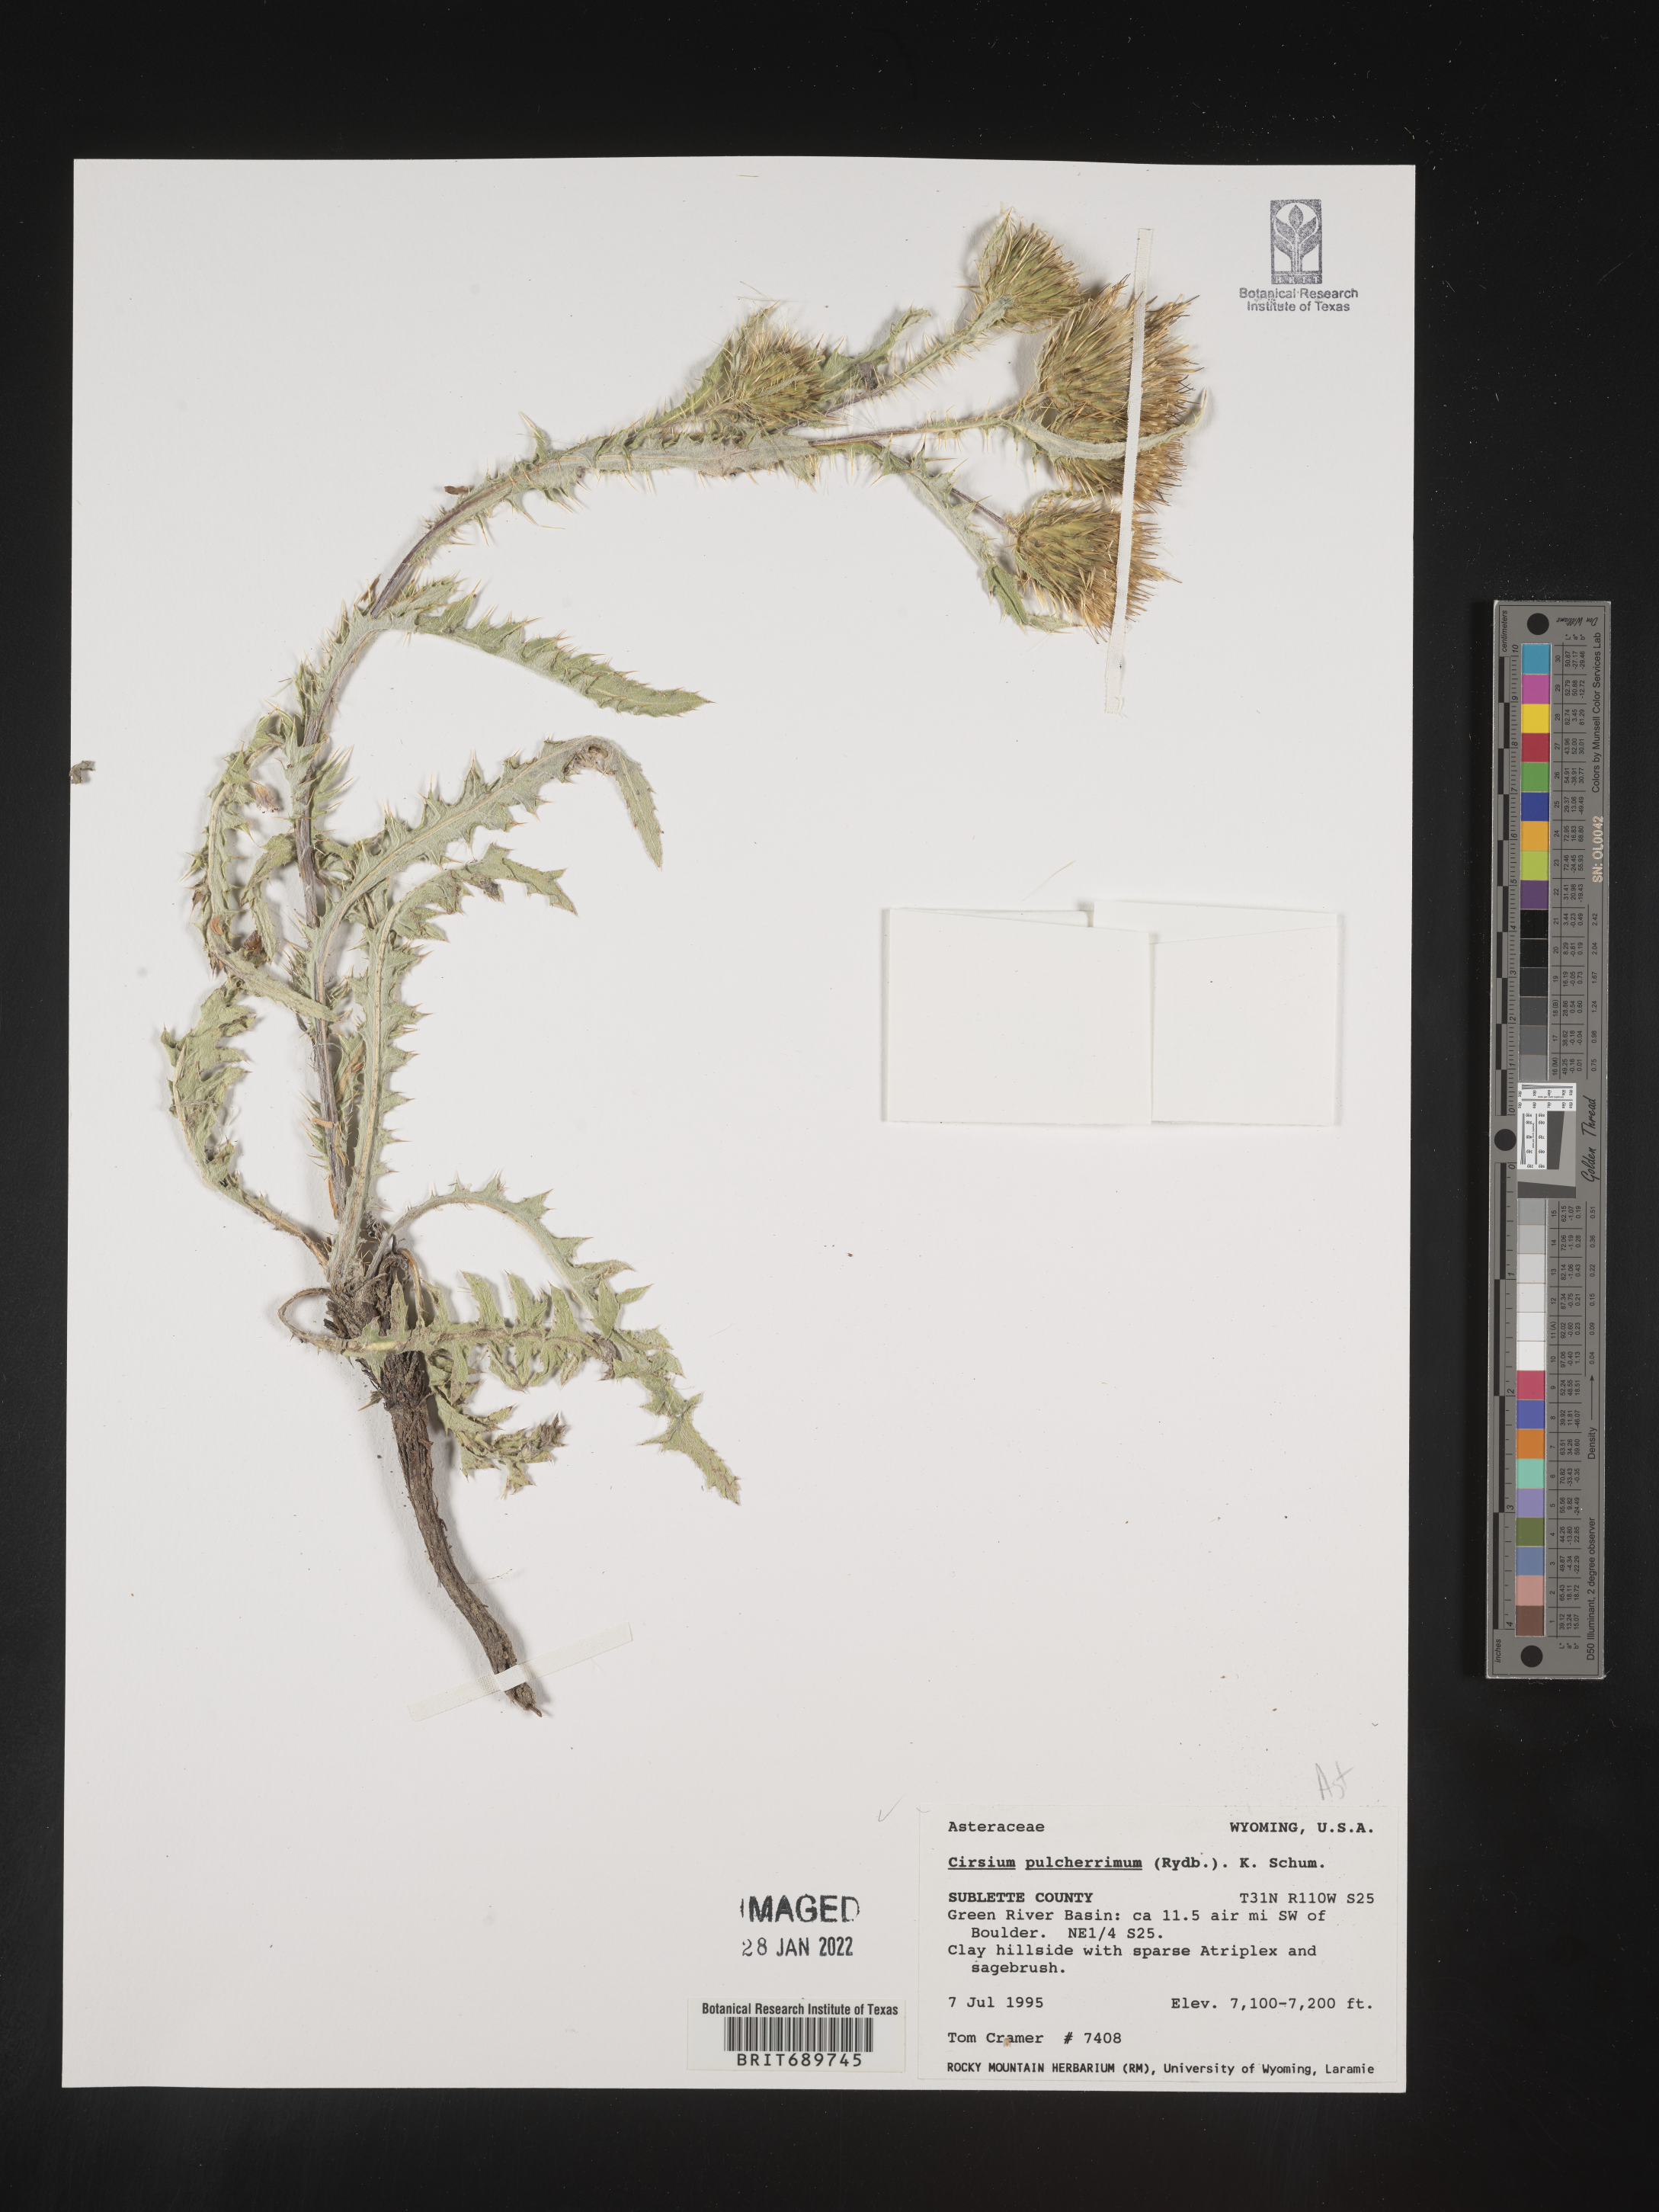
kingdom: Plantae
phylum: Tracheophyta
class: Magnoliopsida
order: Asterales
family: Asteraceae
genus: Cirsium
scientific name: Cirsium occidentale
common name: Western thistle
